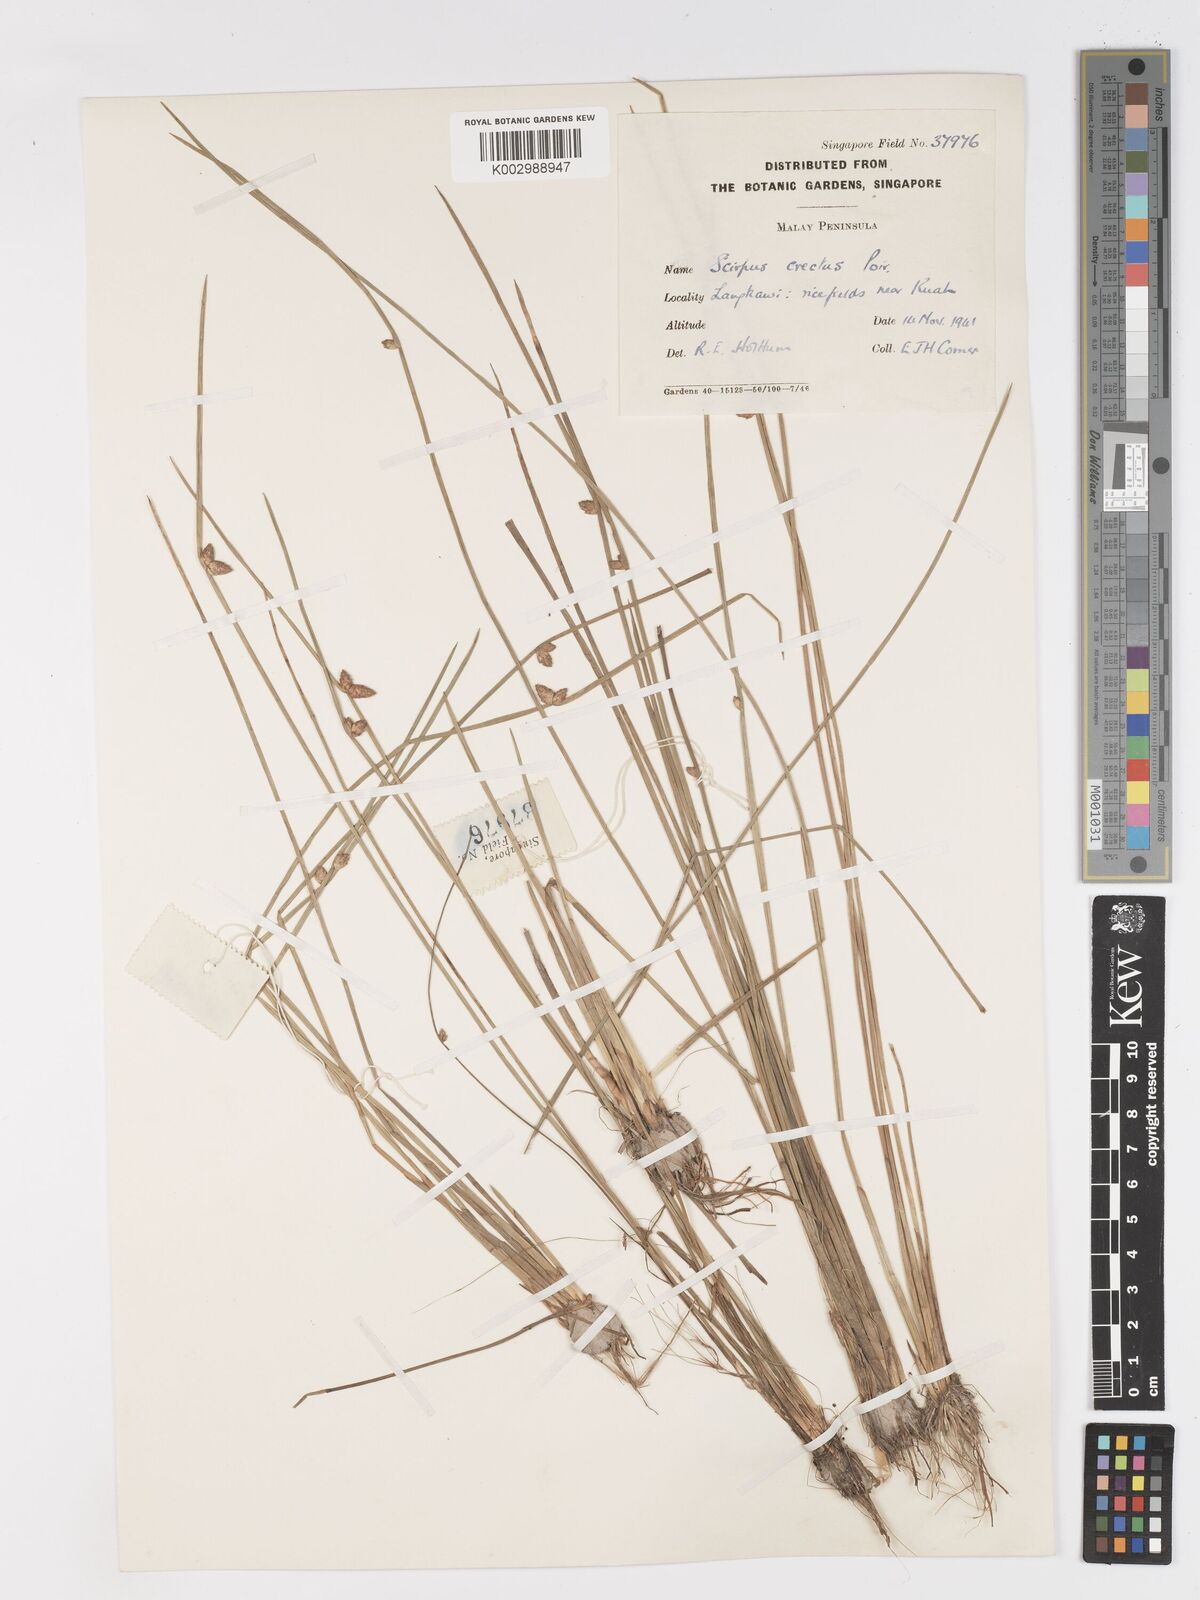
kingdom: Plantae
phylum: Tracheophyta
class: Liliopsida
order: Poales
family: Cyperaceae
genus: Schoenoplectiella
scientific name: Schoenoplectiella juncoides
